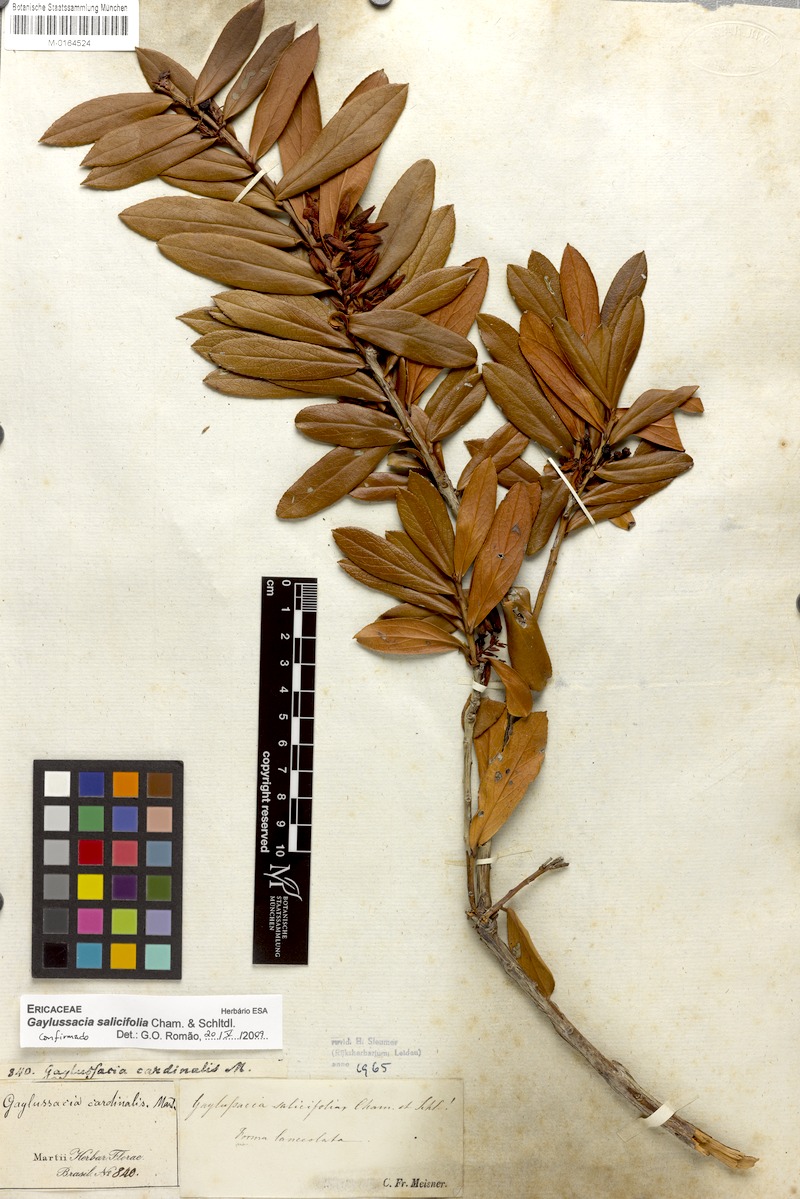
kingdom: Plantae
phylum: Tracheophyta
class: Magnoliopsida
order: Ericales
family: Ericaceae
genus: Gaylussacia
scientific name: Gaylussacia salicifolia
